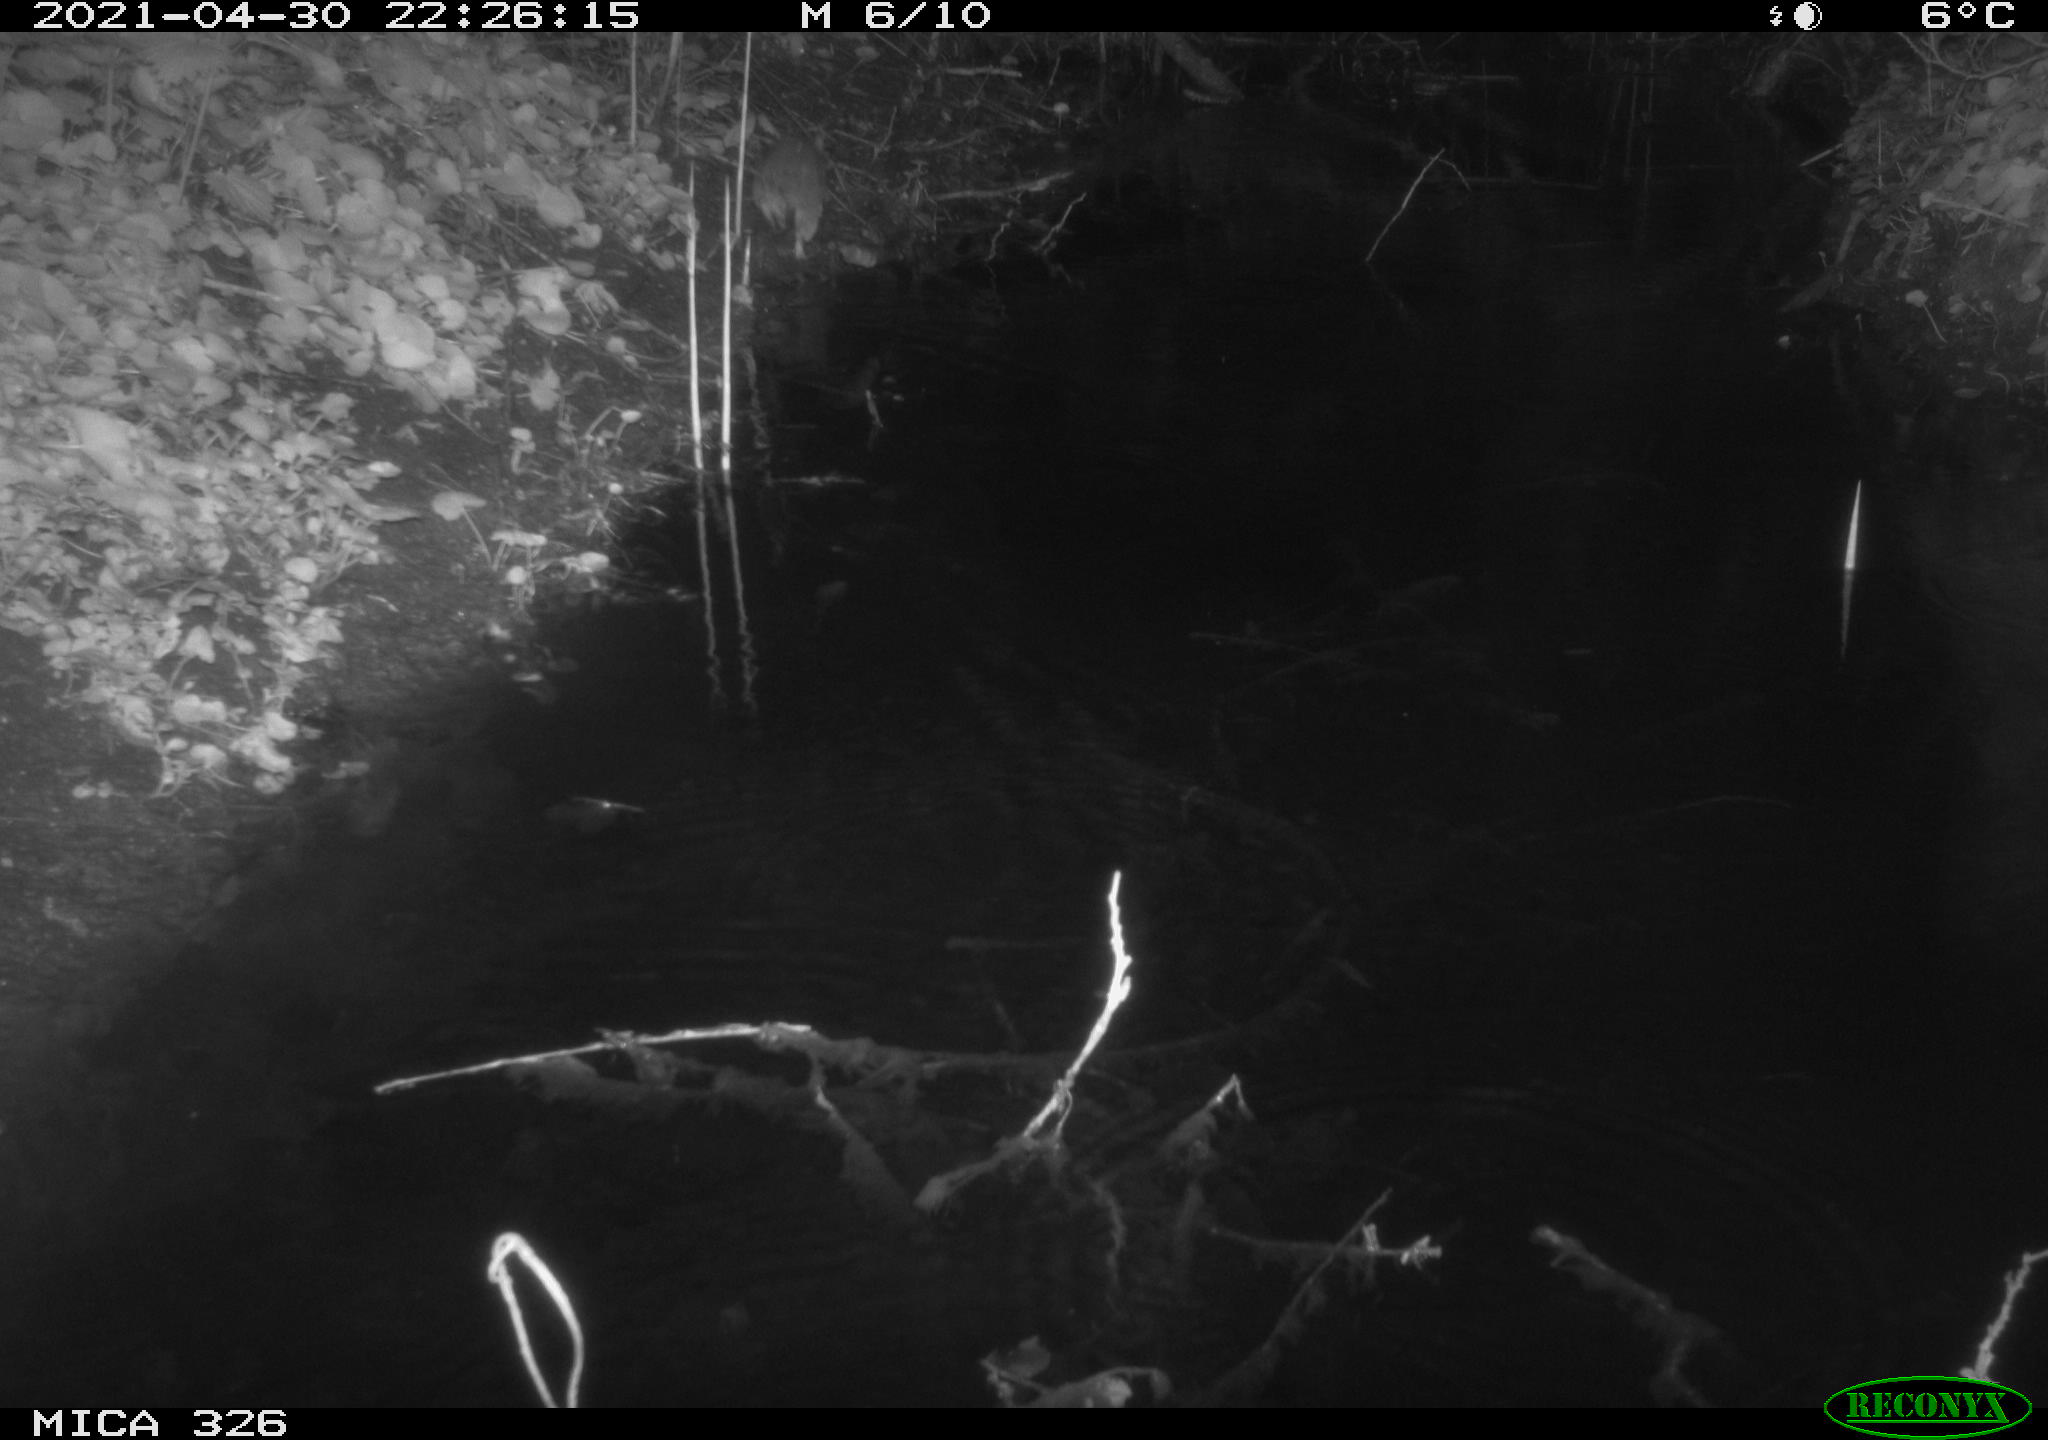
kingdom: Animalia
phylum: Chordata
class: Mammalia
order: Rodentia
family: Muridae
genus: Rattus
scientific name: Rattus norvegicus
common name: Brown rat
